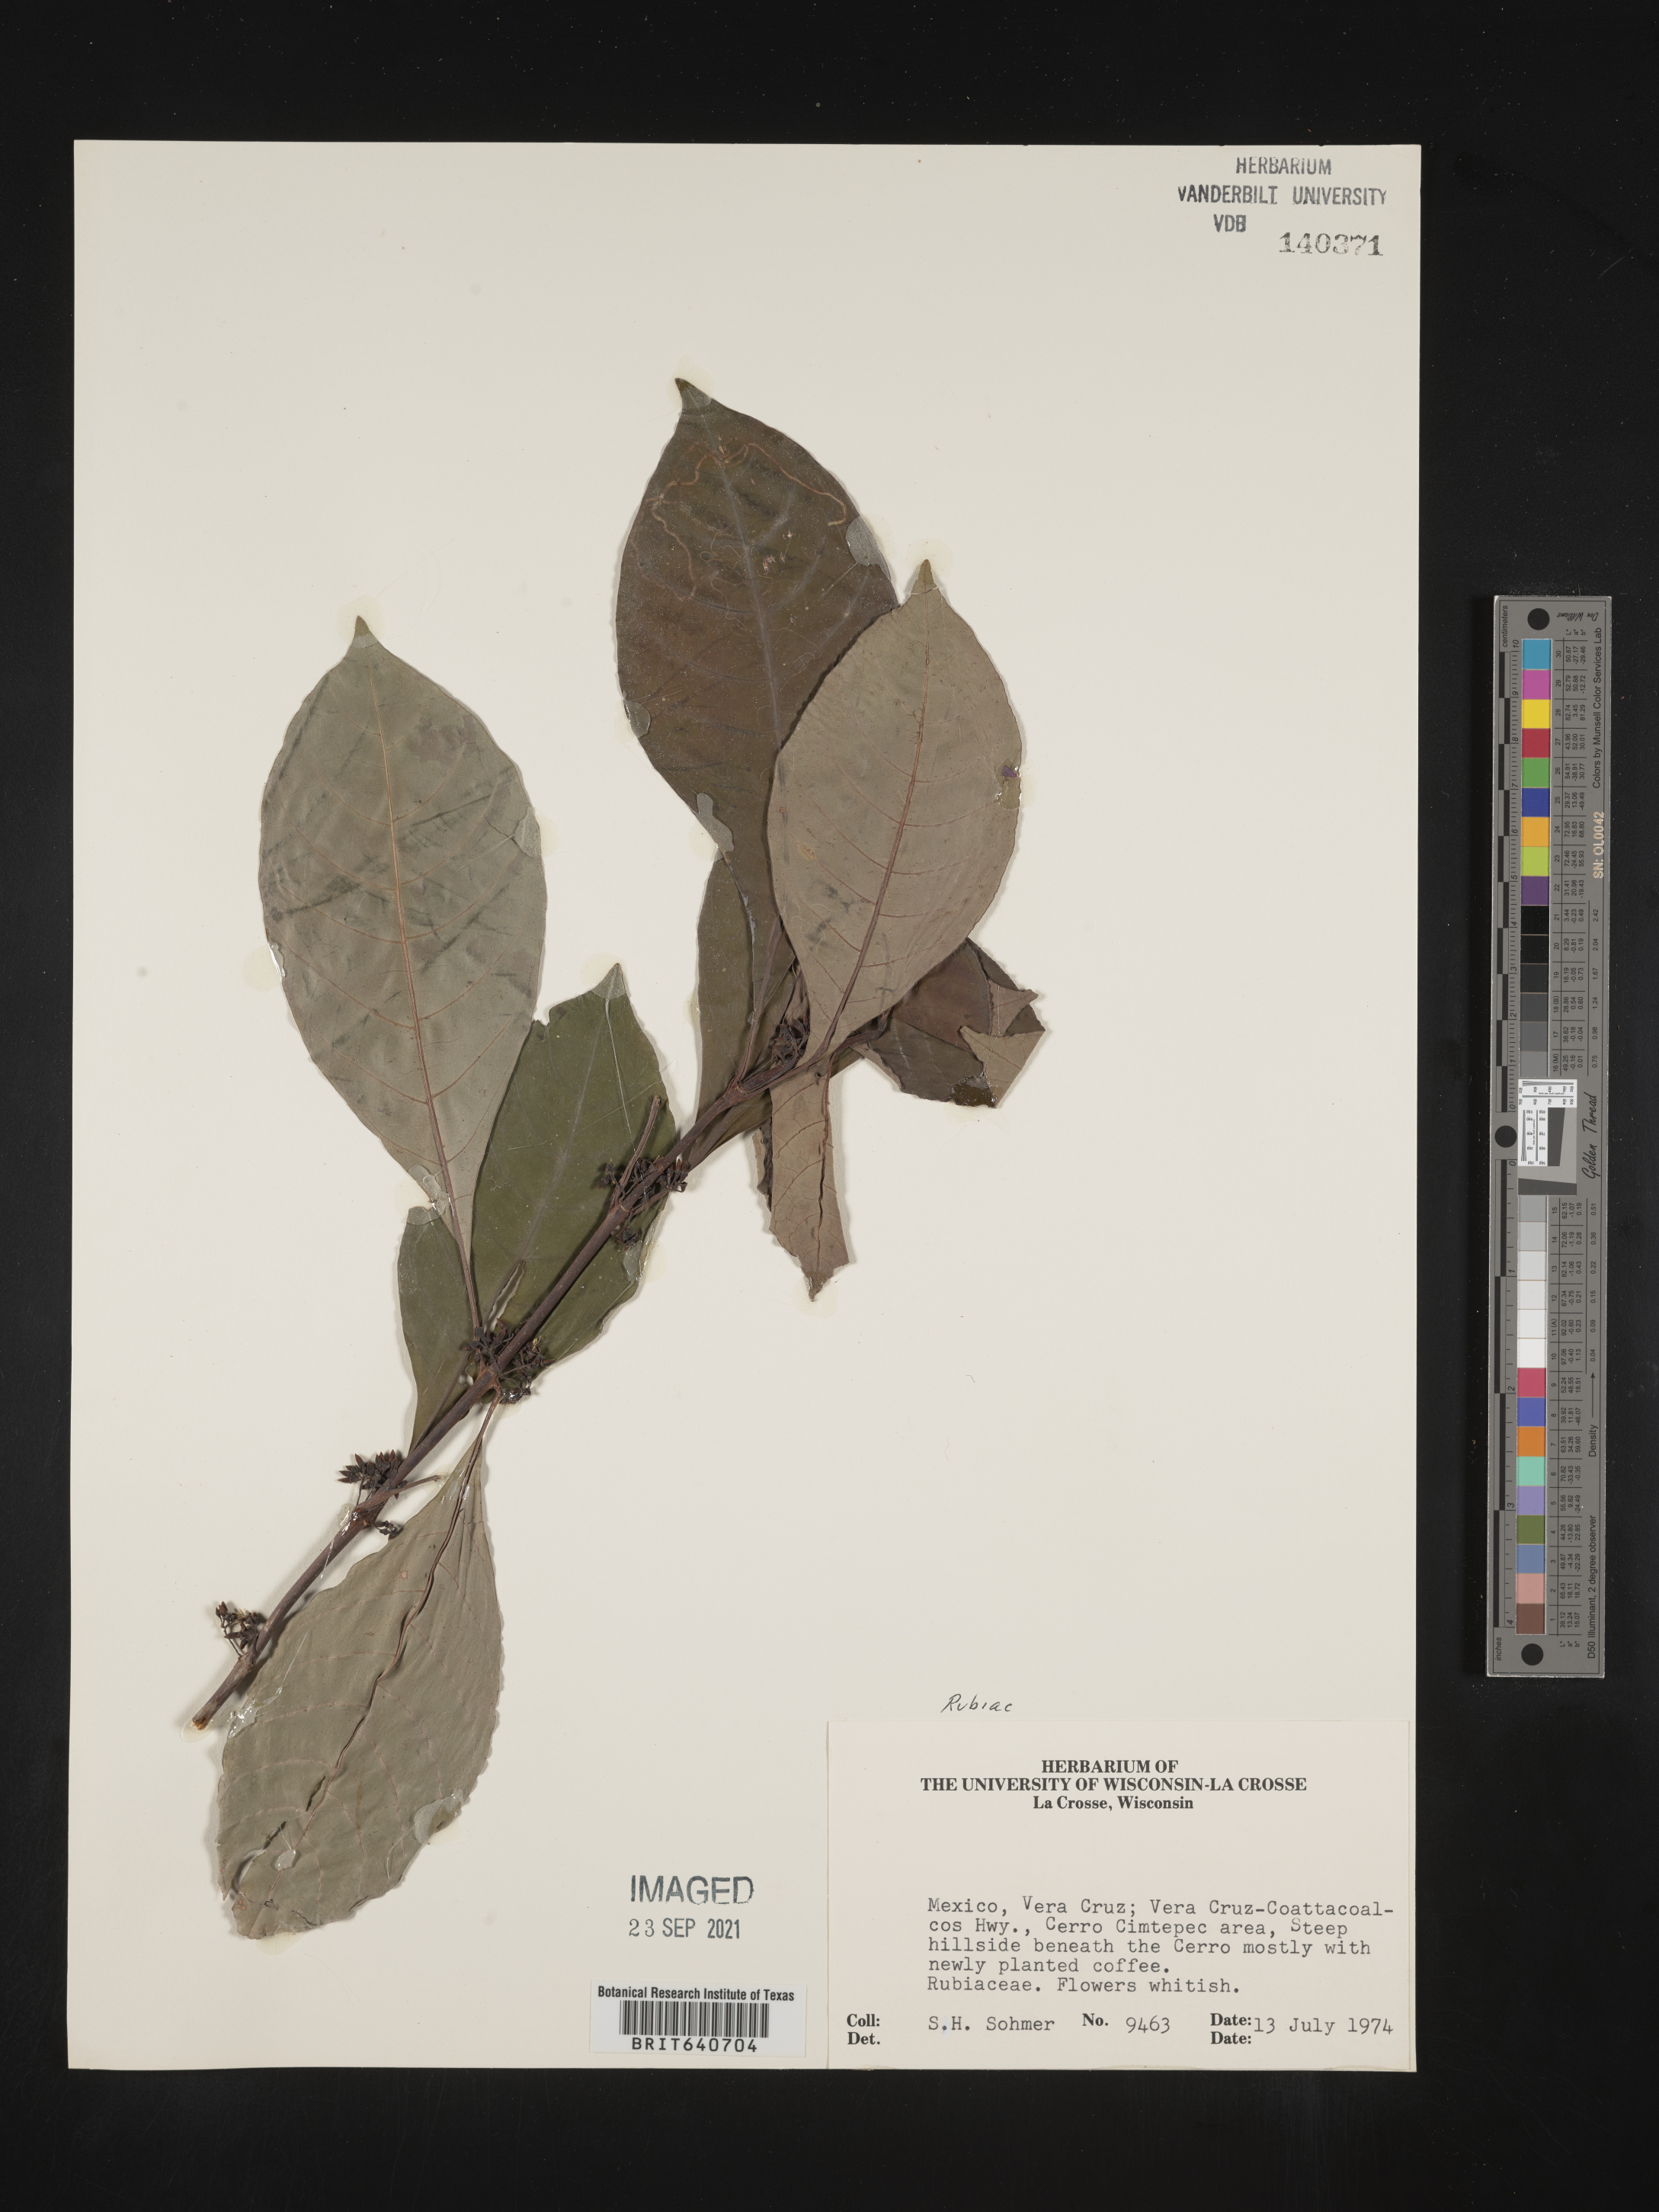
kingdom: Plantae
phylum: Tracheophyta
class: Magnoliopsida
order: Gentianales
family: Rubiaceae
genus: Hoffmannia
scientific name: Hoffmannia
